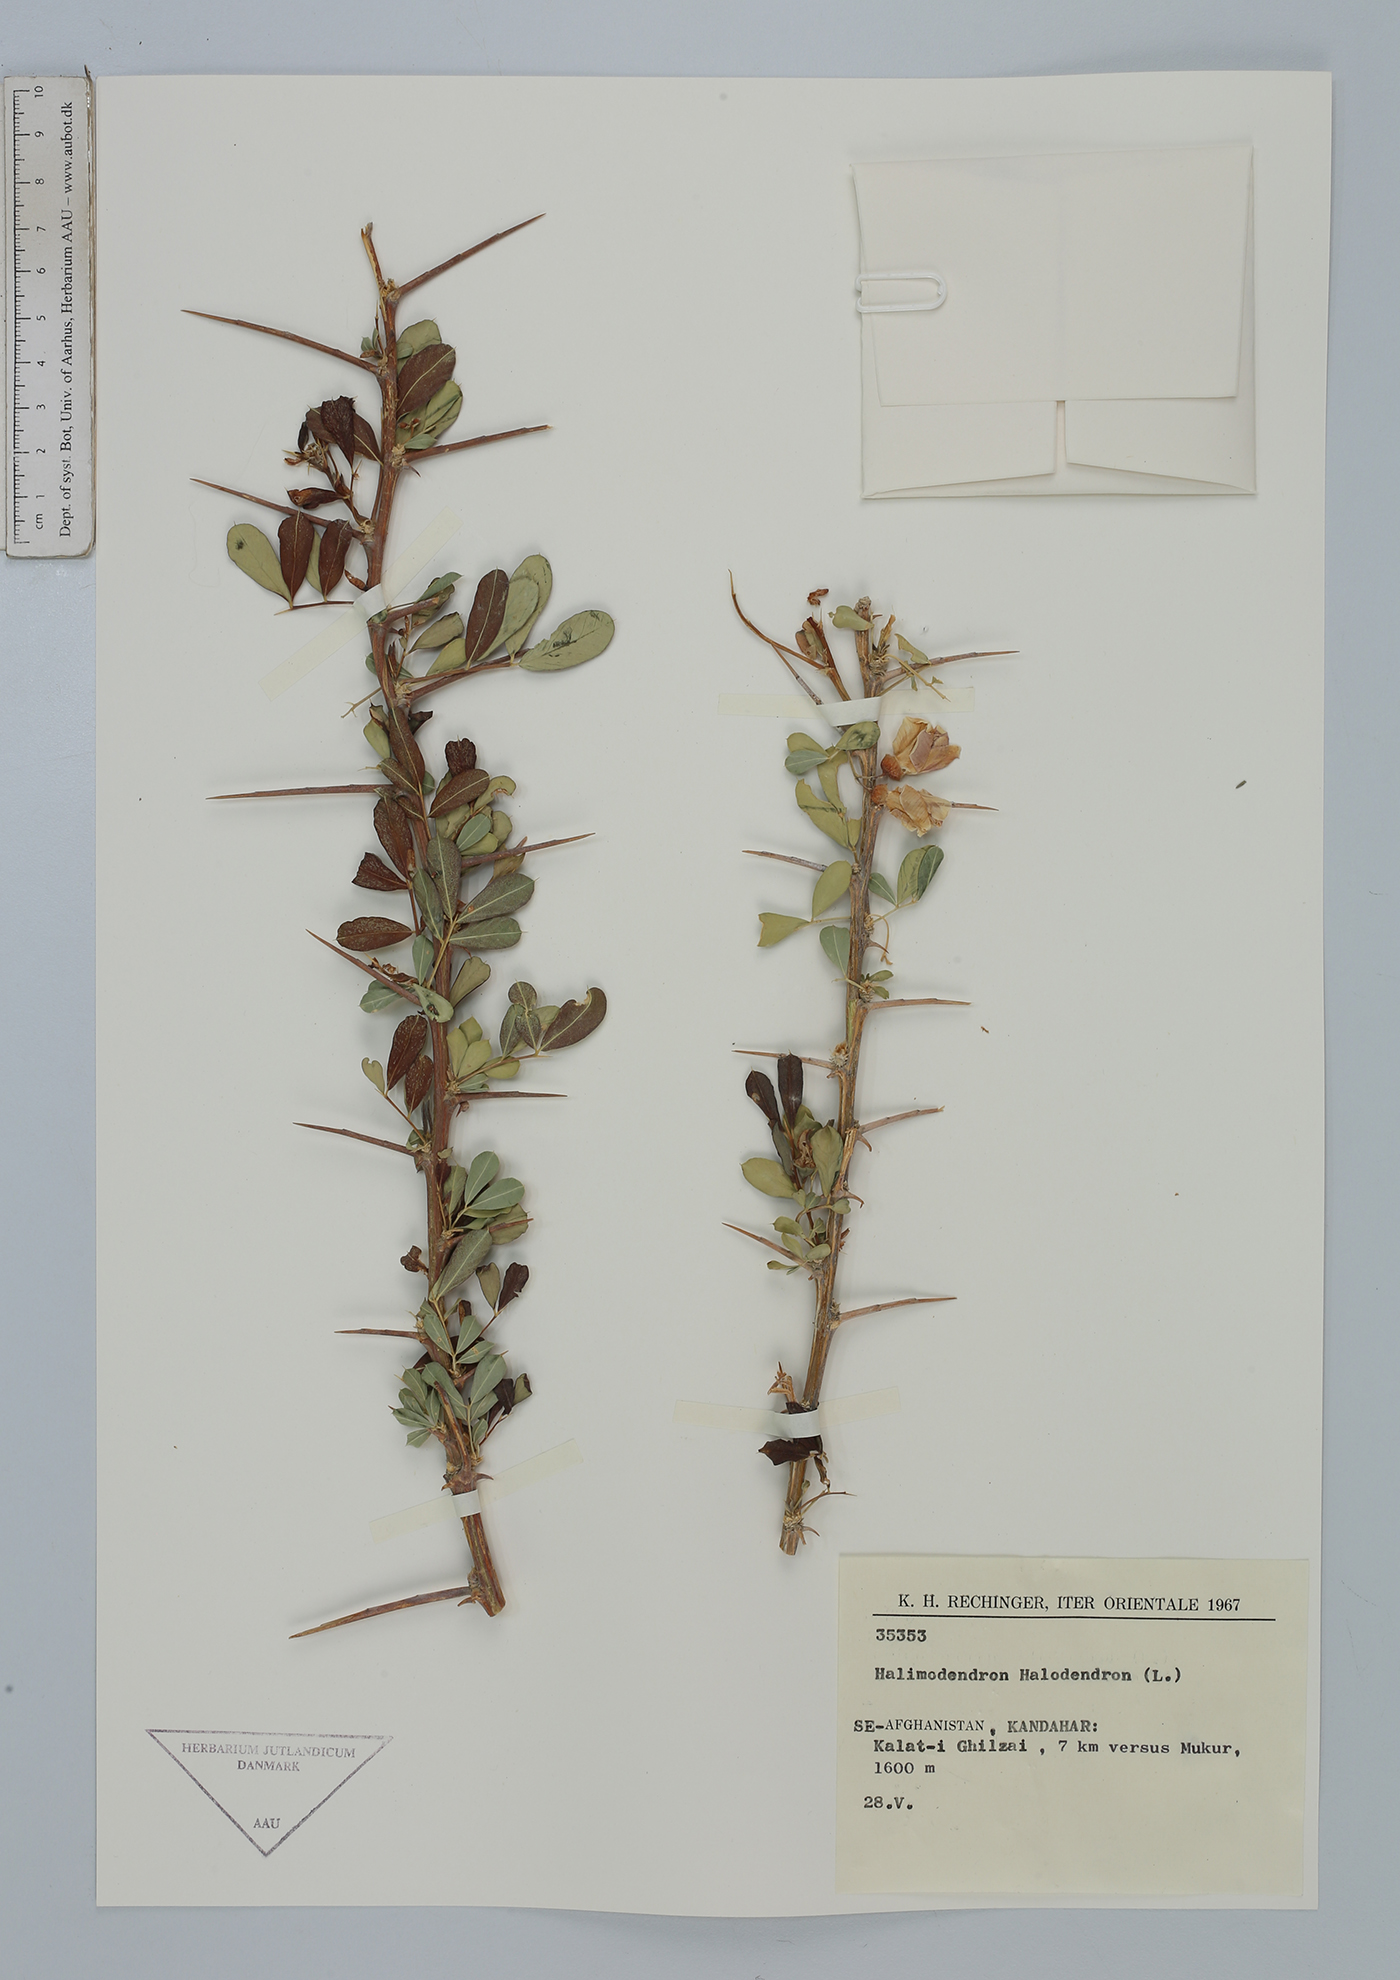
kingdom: Plantae
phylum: Tracheophyta
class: Magnoliopsida
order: Fabales
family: Fabaceae
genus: Caragana
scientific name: Caragana halodendron
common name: Siberian salt-tree
